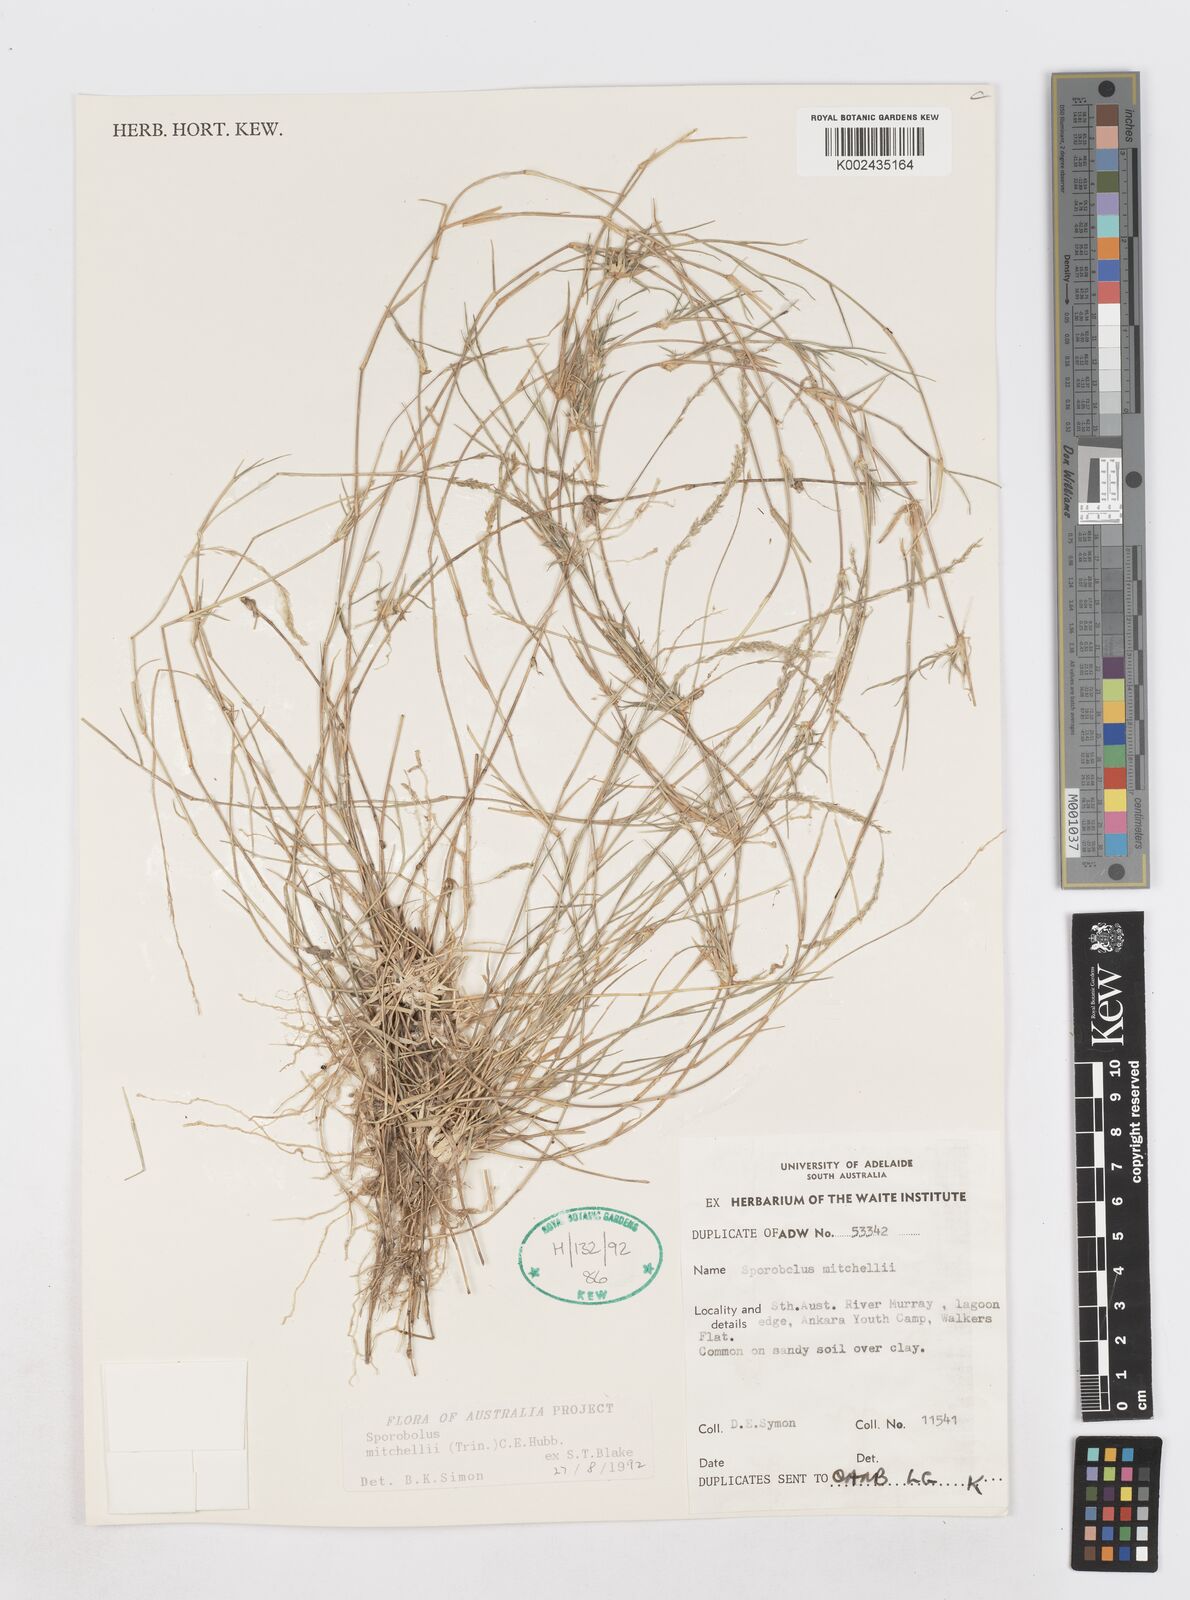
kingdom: Plantae
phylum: Tracheophyta
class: Liliopsida
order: Poales
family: Poaceae
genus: Sporobolus
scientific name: Sporobolus mitchellii
